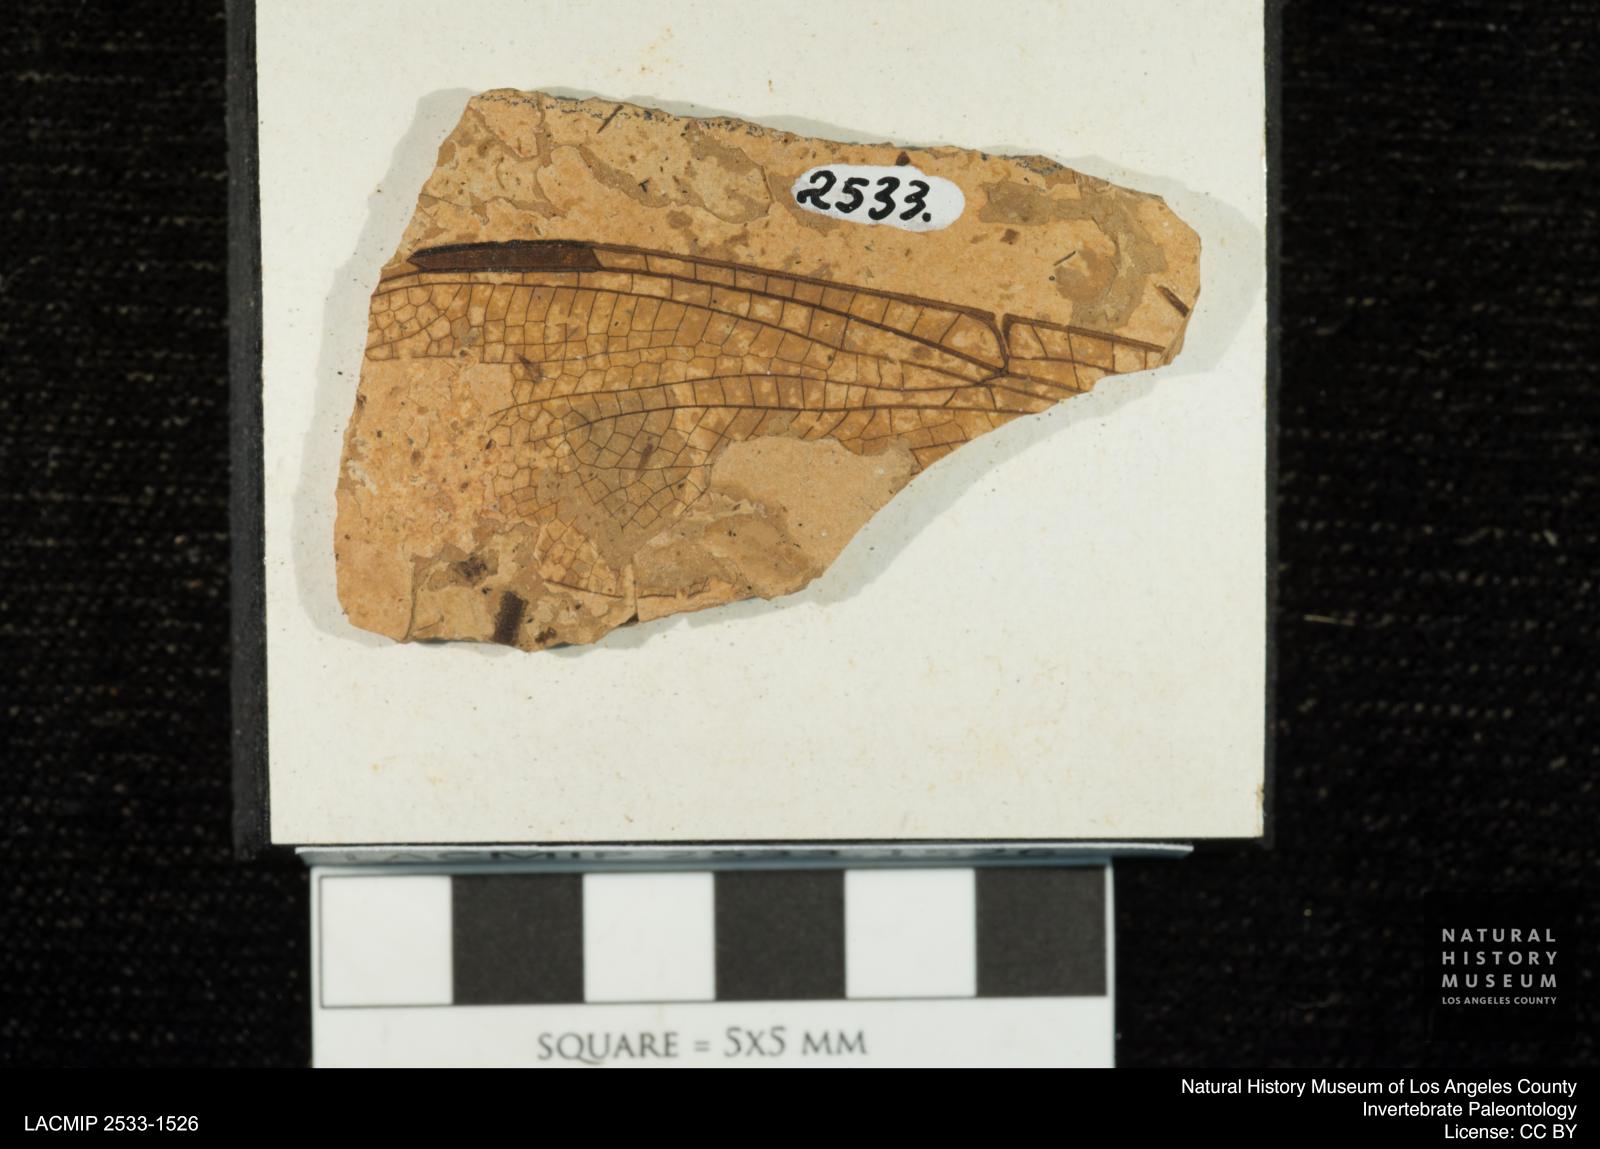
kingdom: Animalia
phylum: Arthropoda
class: Insecta
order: Odonata
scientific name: Odonata
